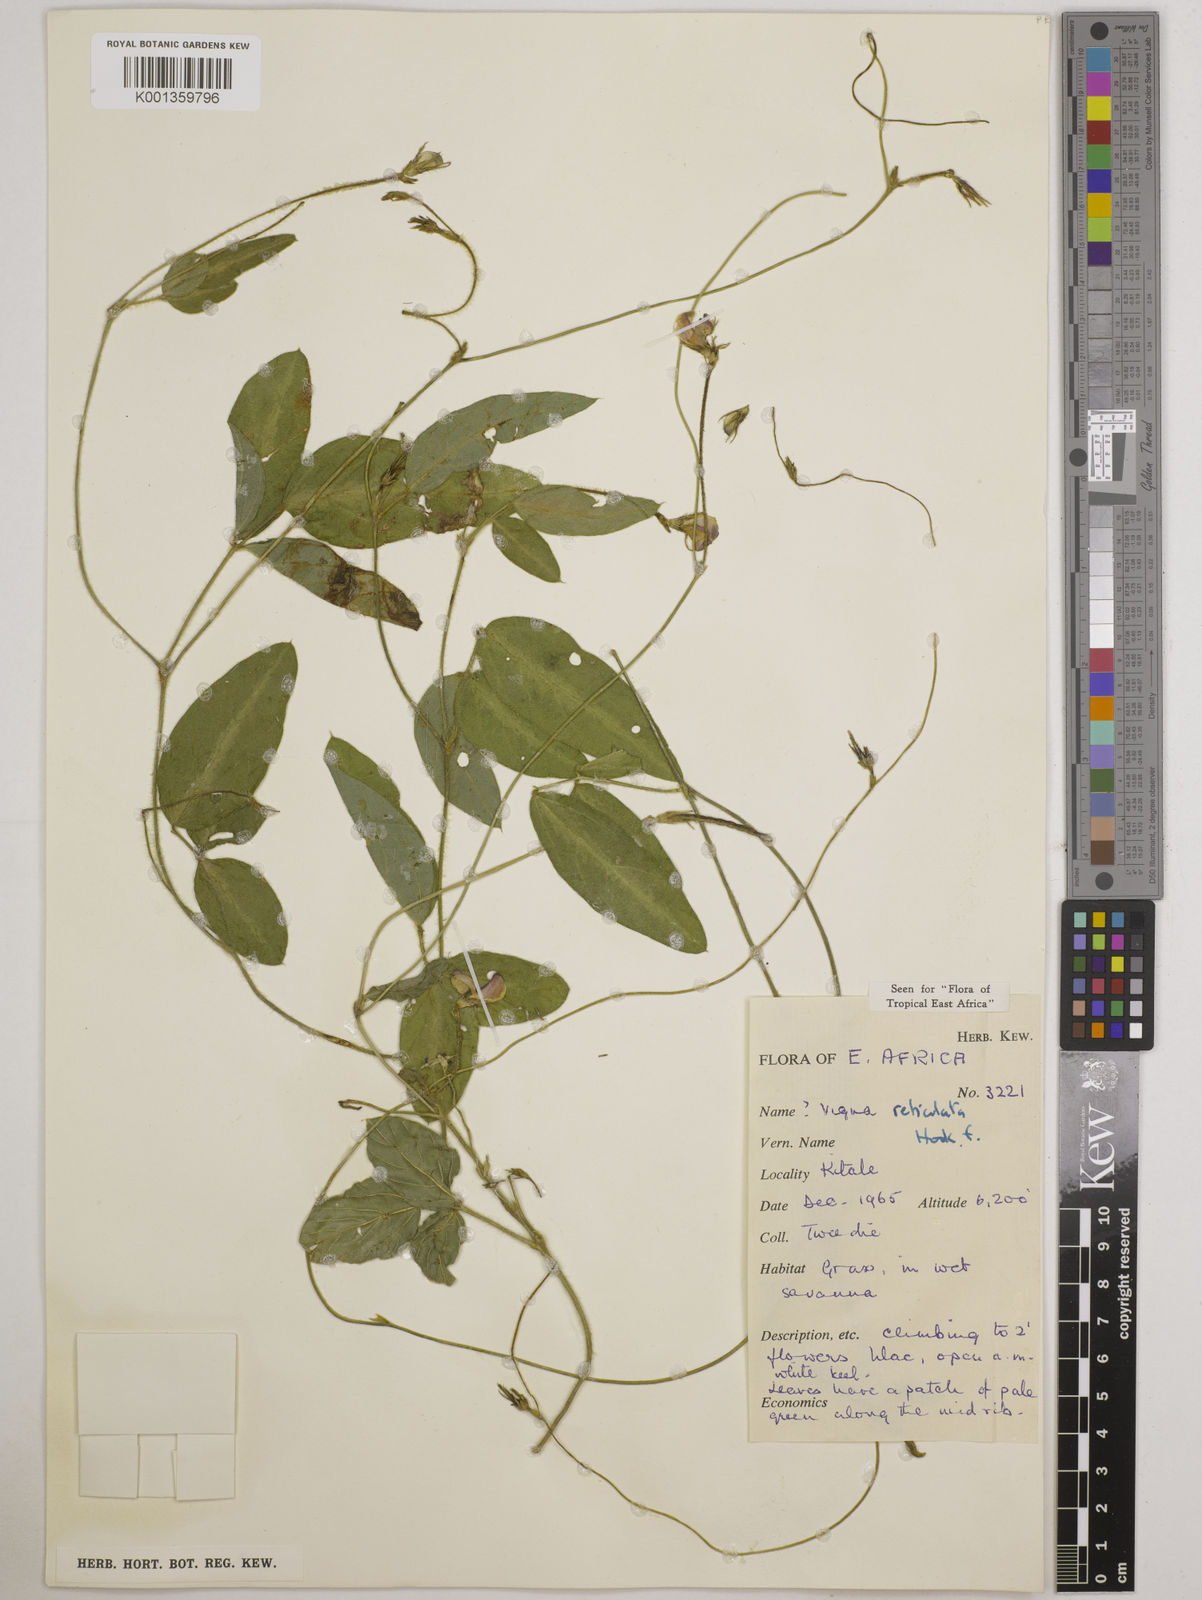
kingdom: Plantae
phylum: Tracheophyta
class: Magnoliopsida
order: Fabales
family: Fabaceae
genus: Vigna
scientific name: Vigna reticulata
